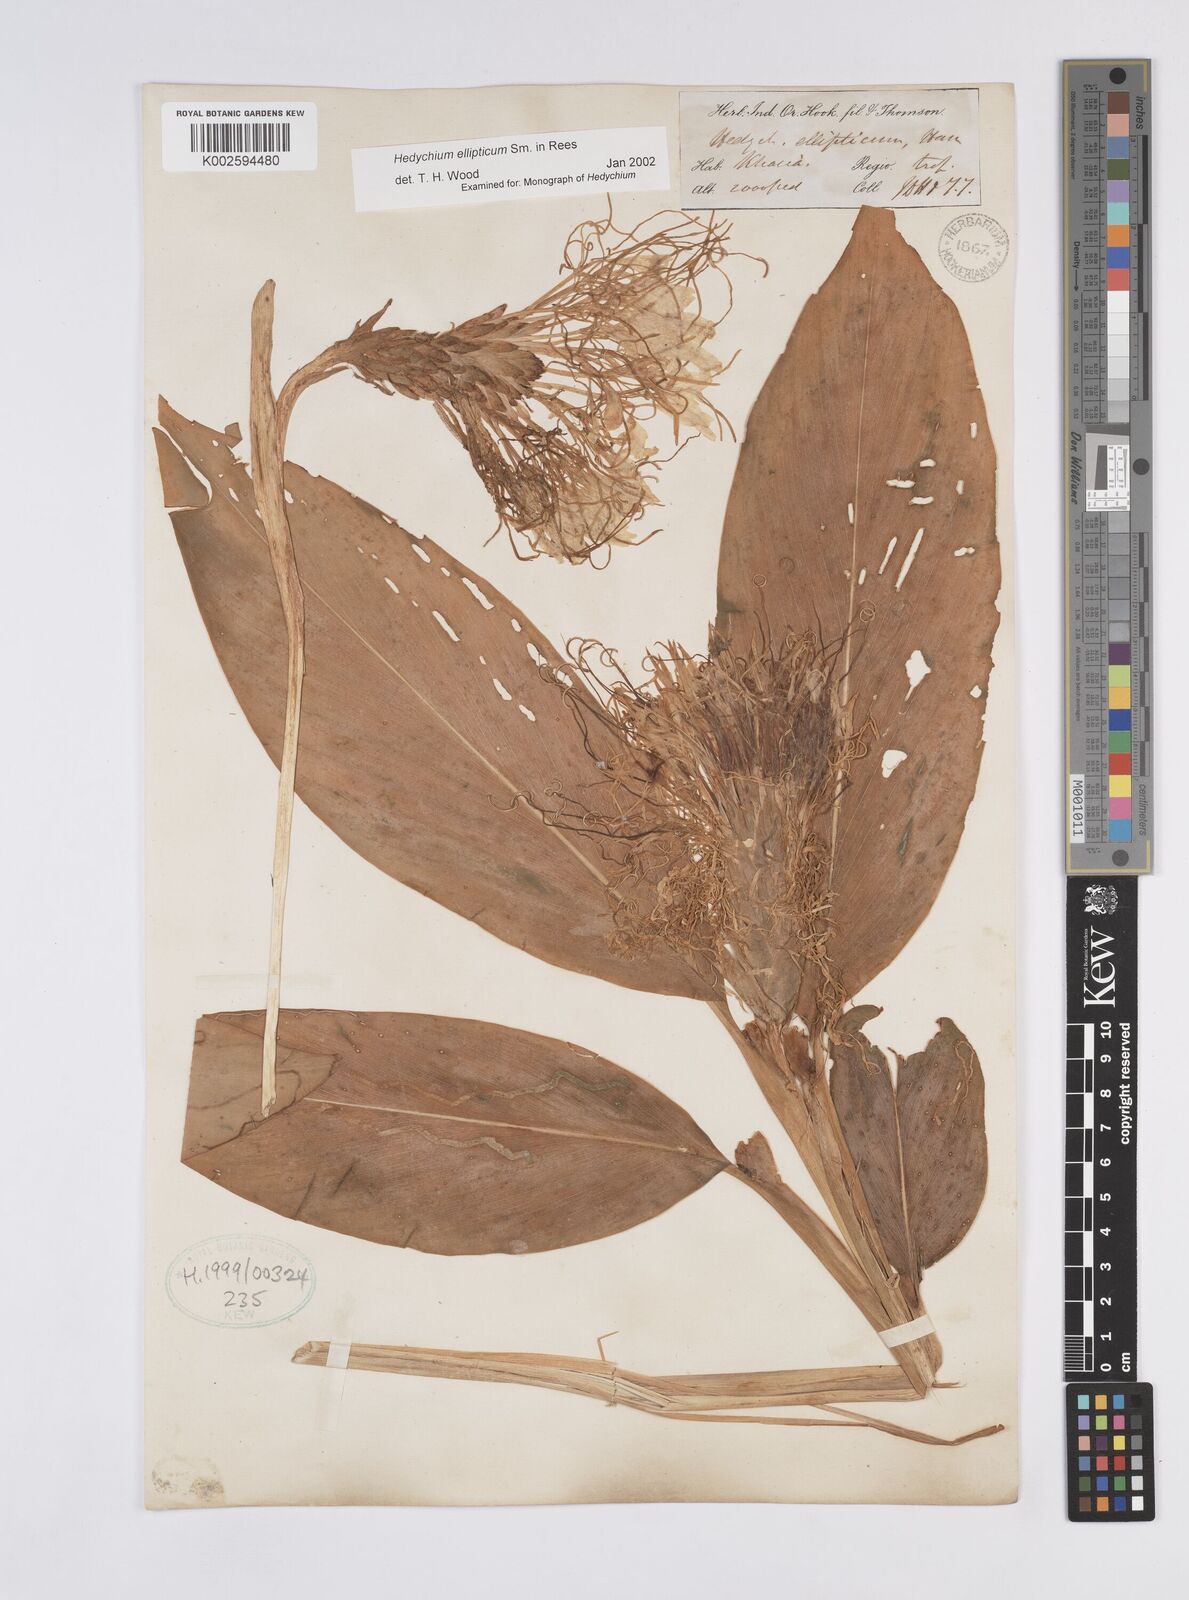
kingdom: Plantae
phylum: Tracheophyta
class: Liliopsida
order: Zingiberales
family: Zingiberaceae
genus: Hedychium
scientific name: Hedychium ellipticum
